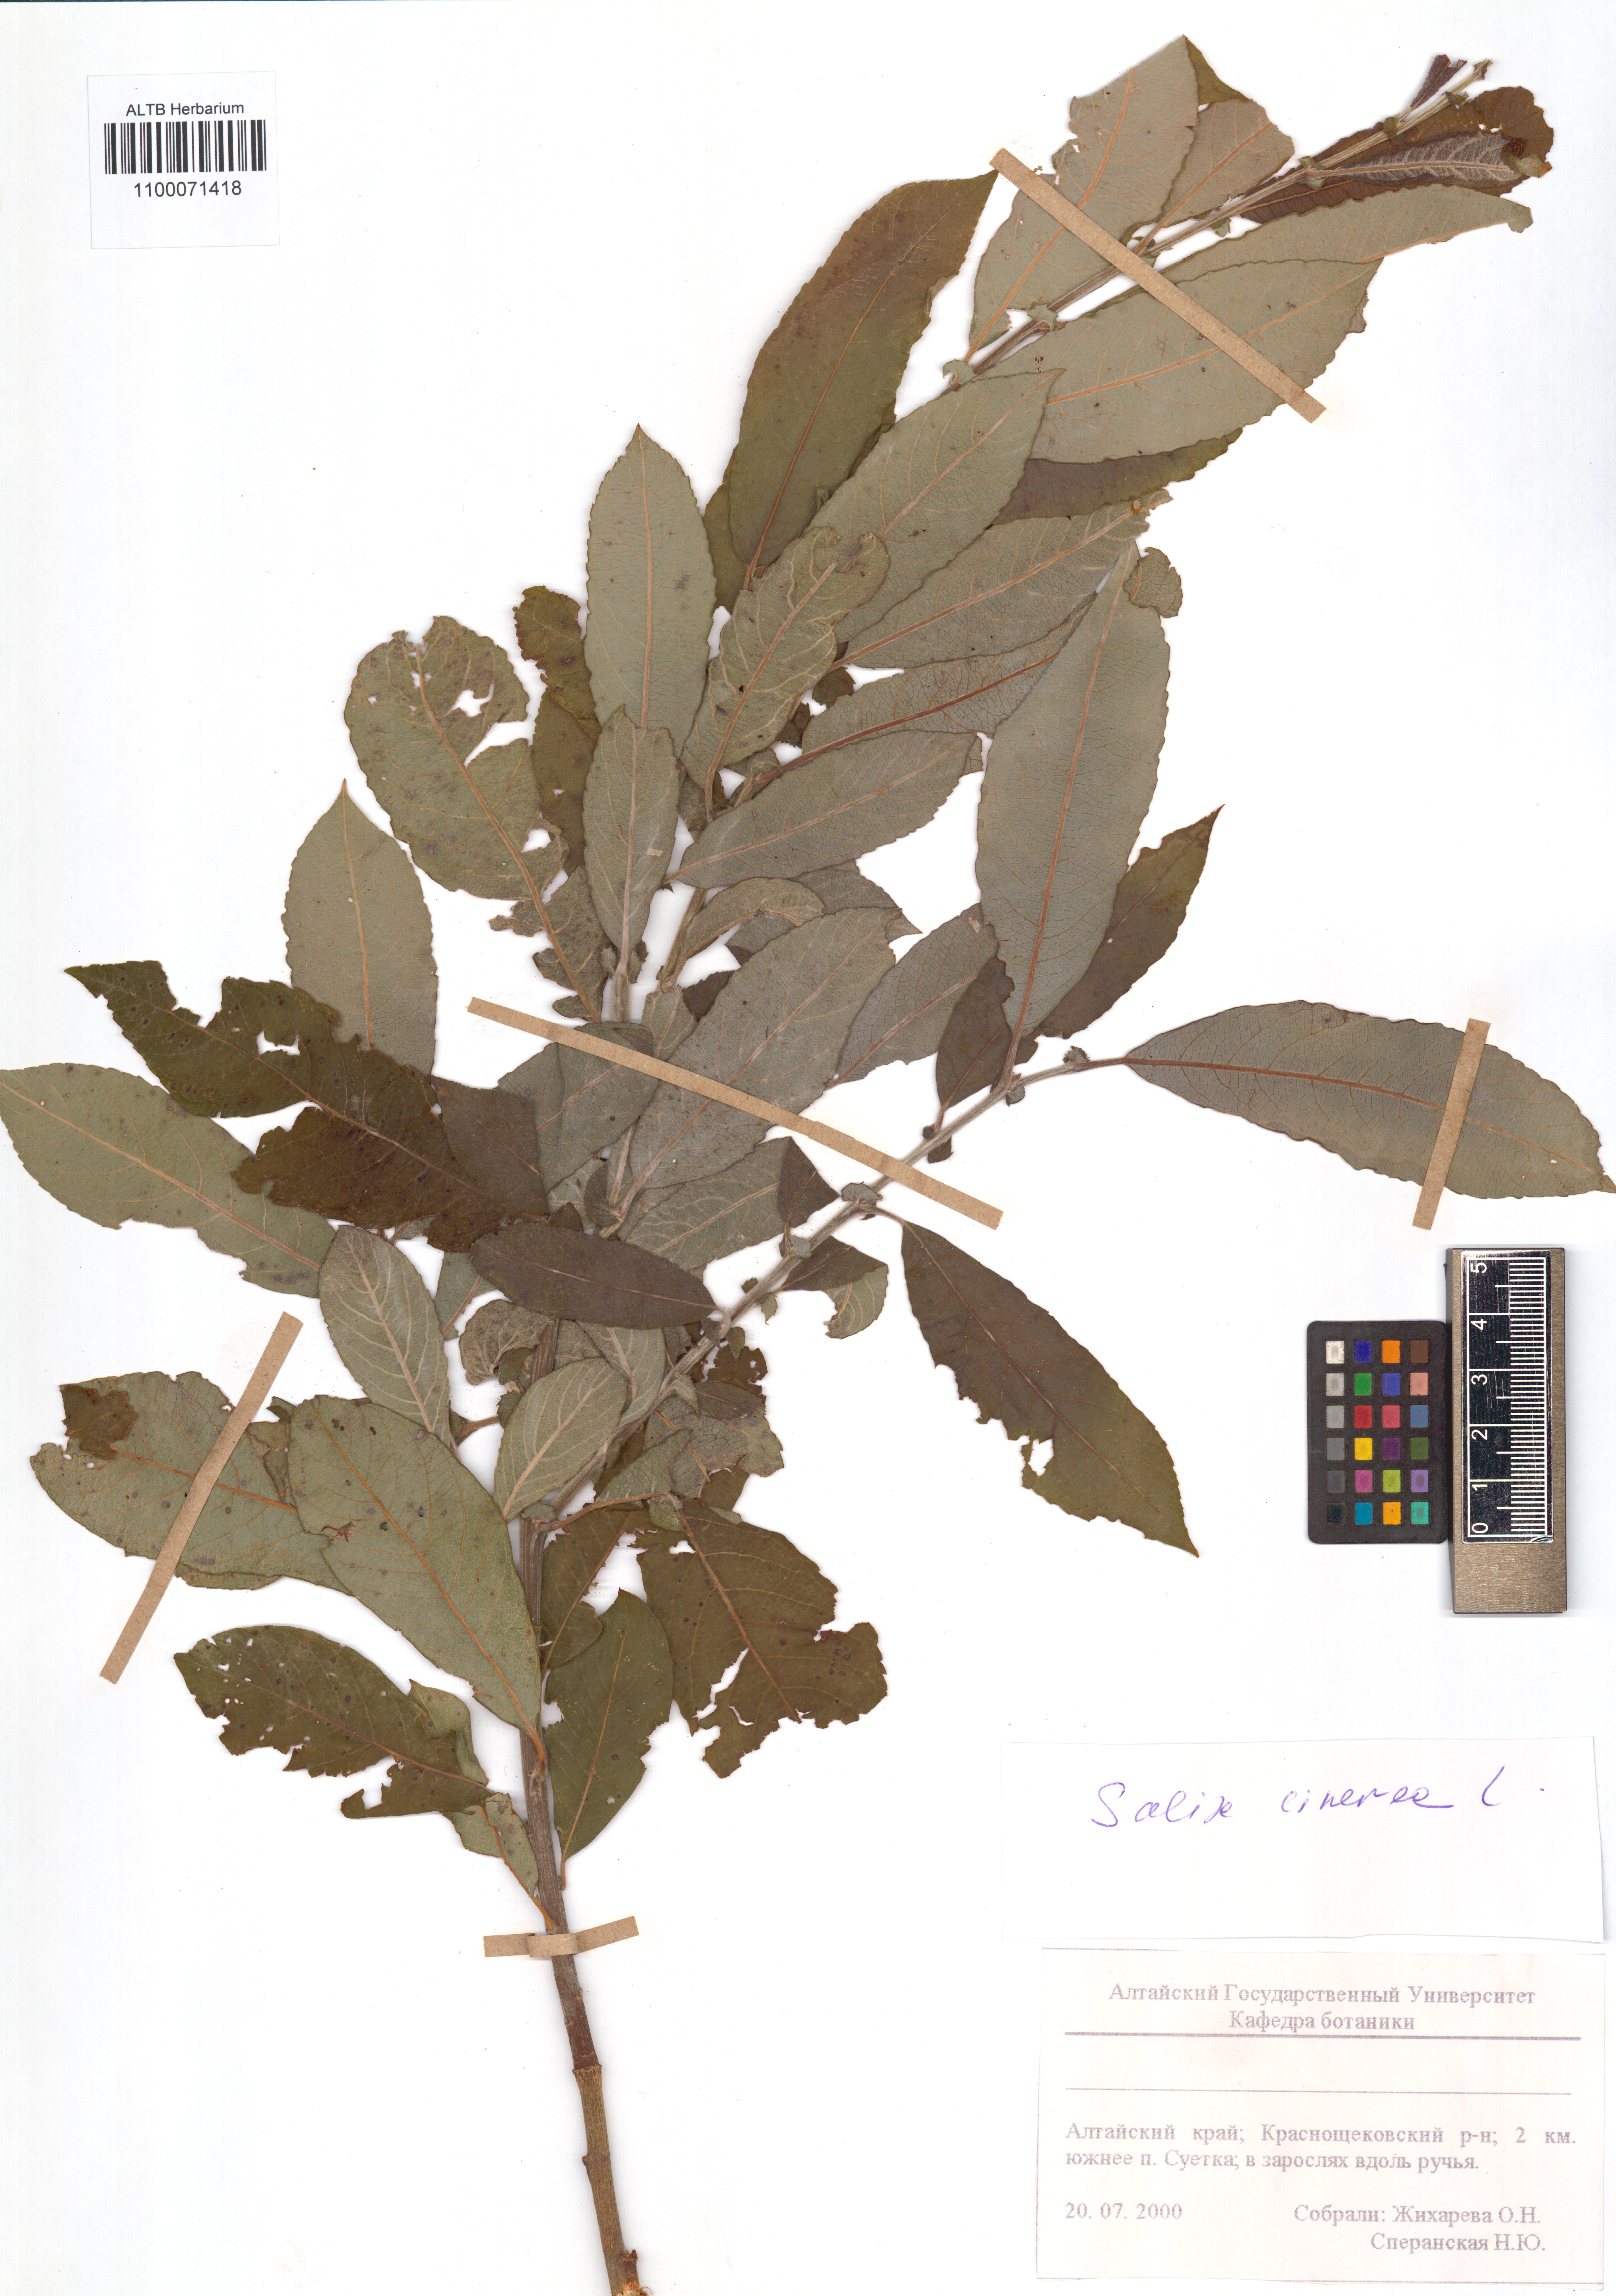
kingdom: Plantae
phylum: Tracheophyta
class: Magnoliopsida
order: Malpighiales
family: Salicaceae
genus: Salix
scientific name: Salix cinerea
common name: Common sallow
